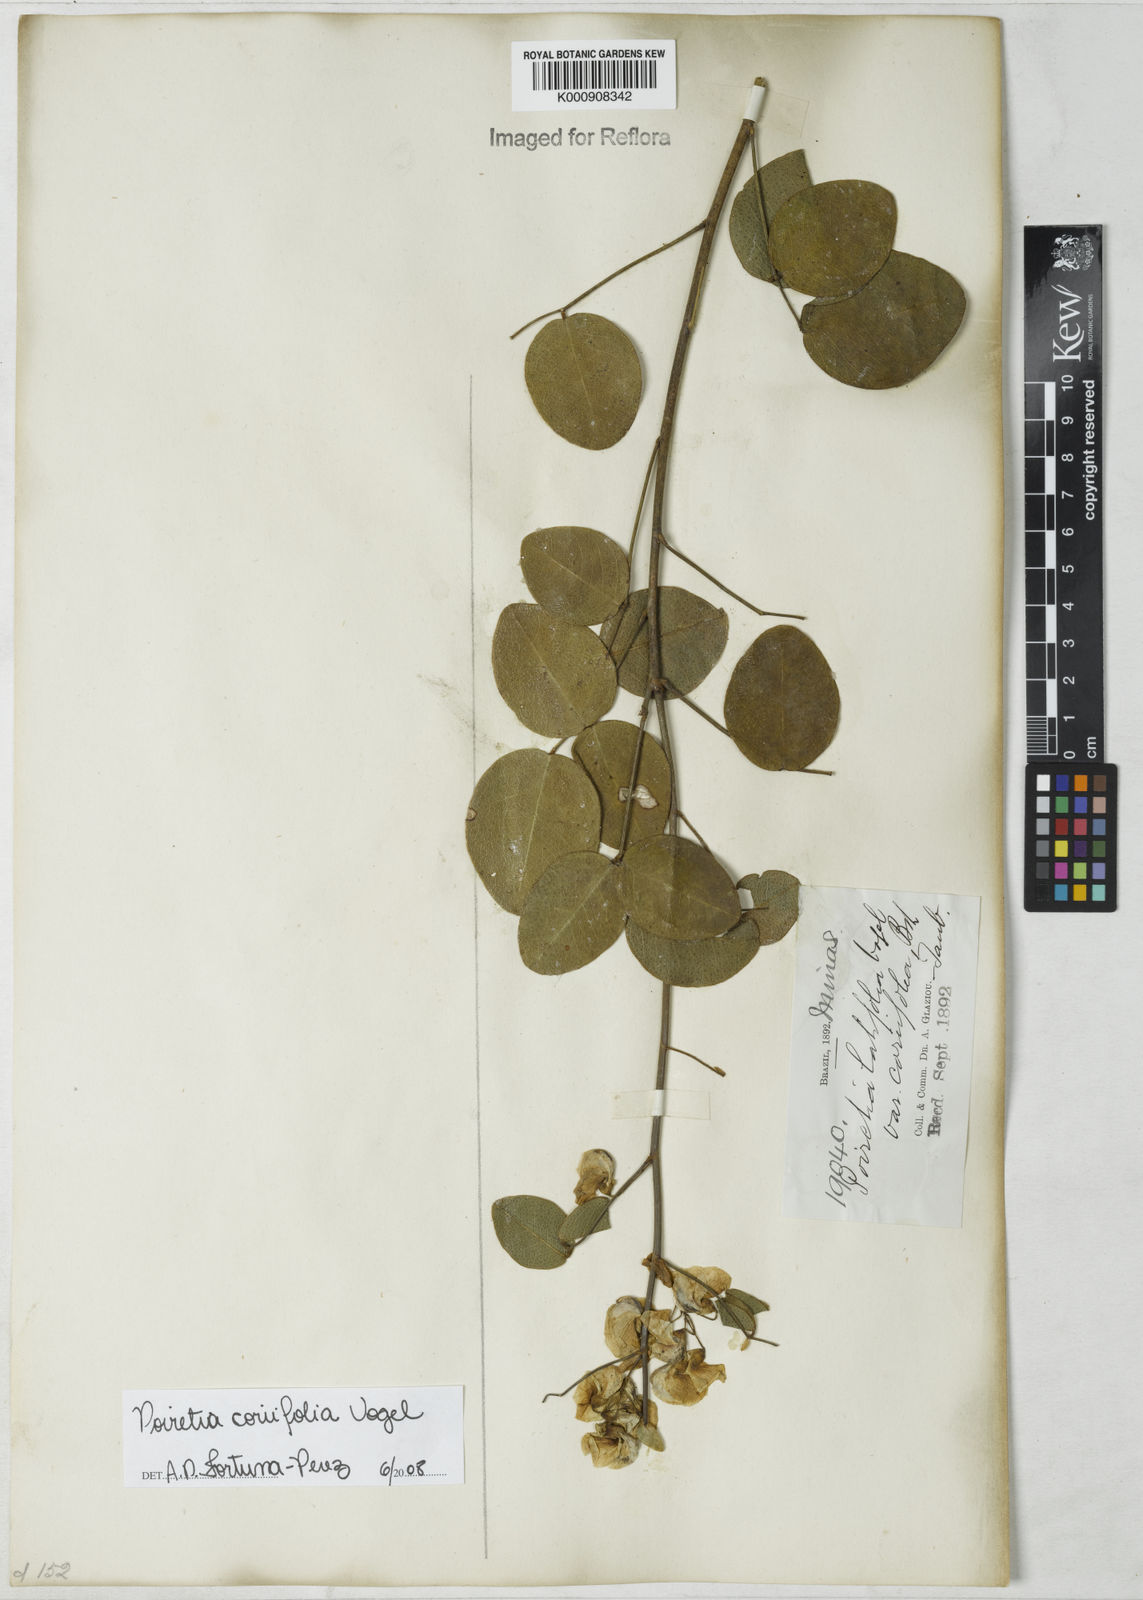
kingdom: Plantae
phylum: Tracheophyta
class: Magnoliopsida
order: Fabales
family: Fabaceae
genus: Poiretia
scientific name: Poiretia coriifolia
